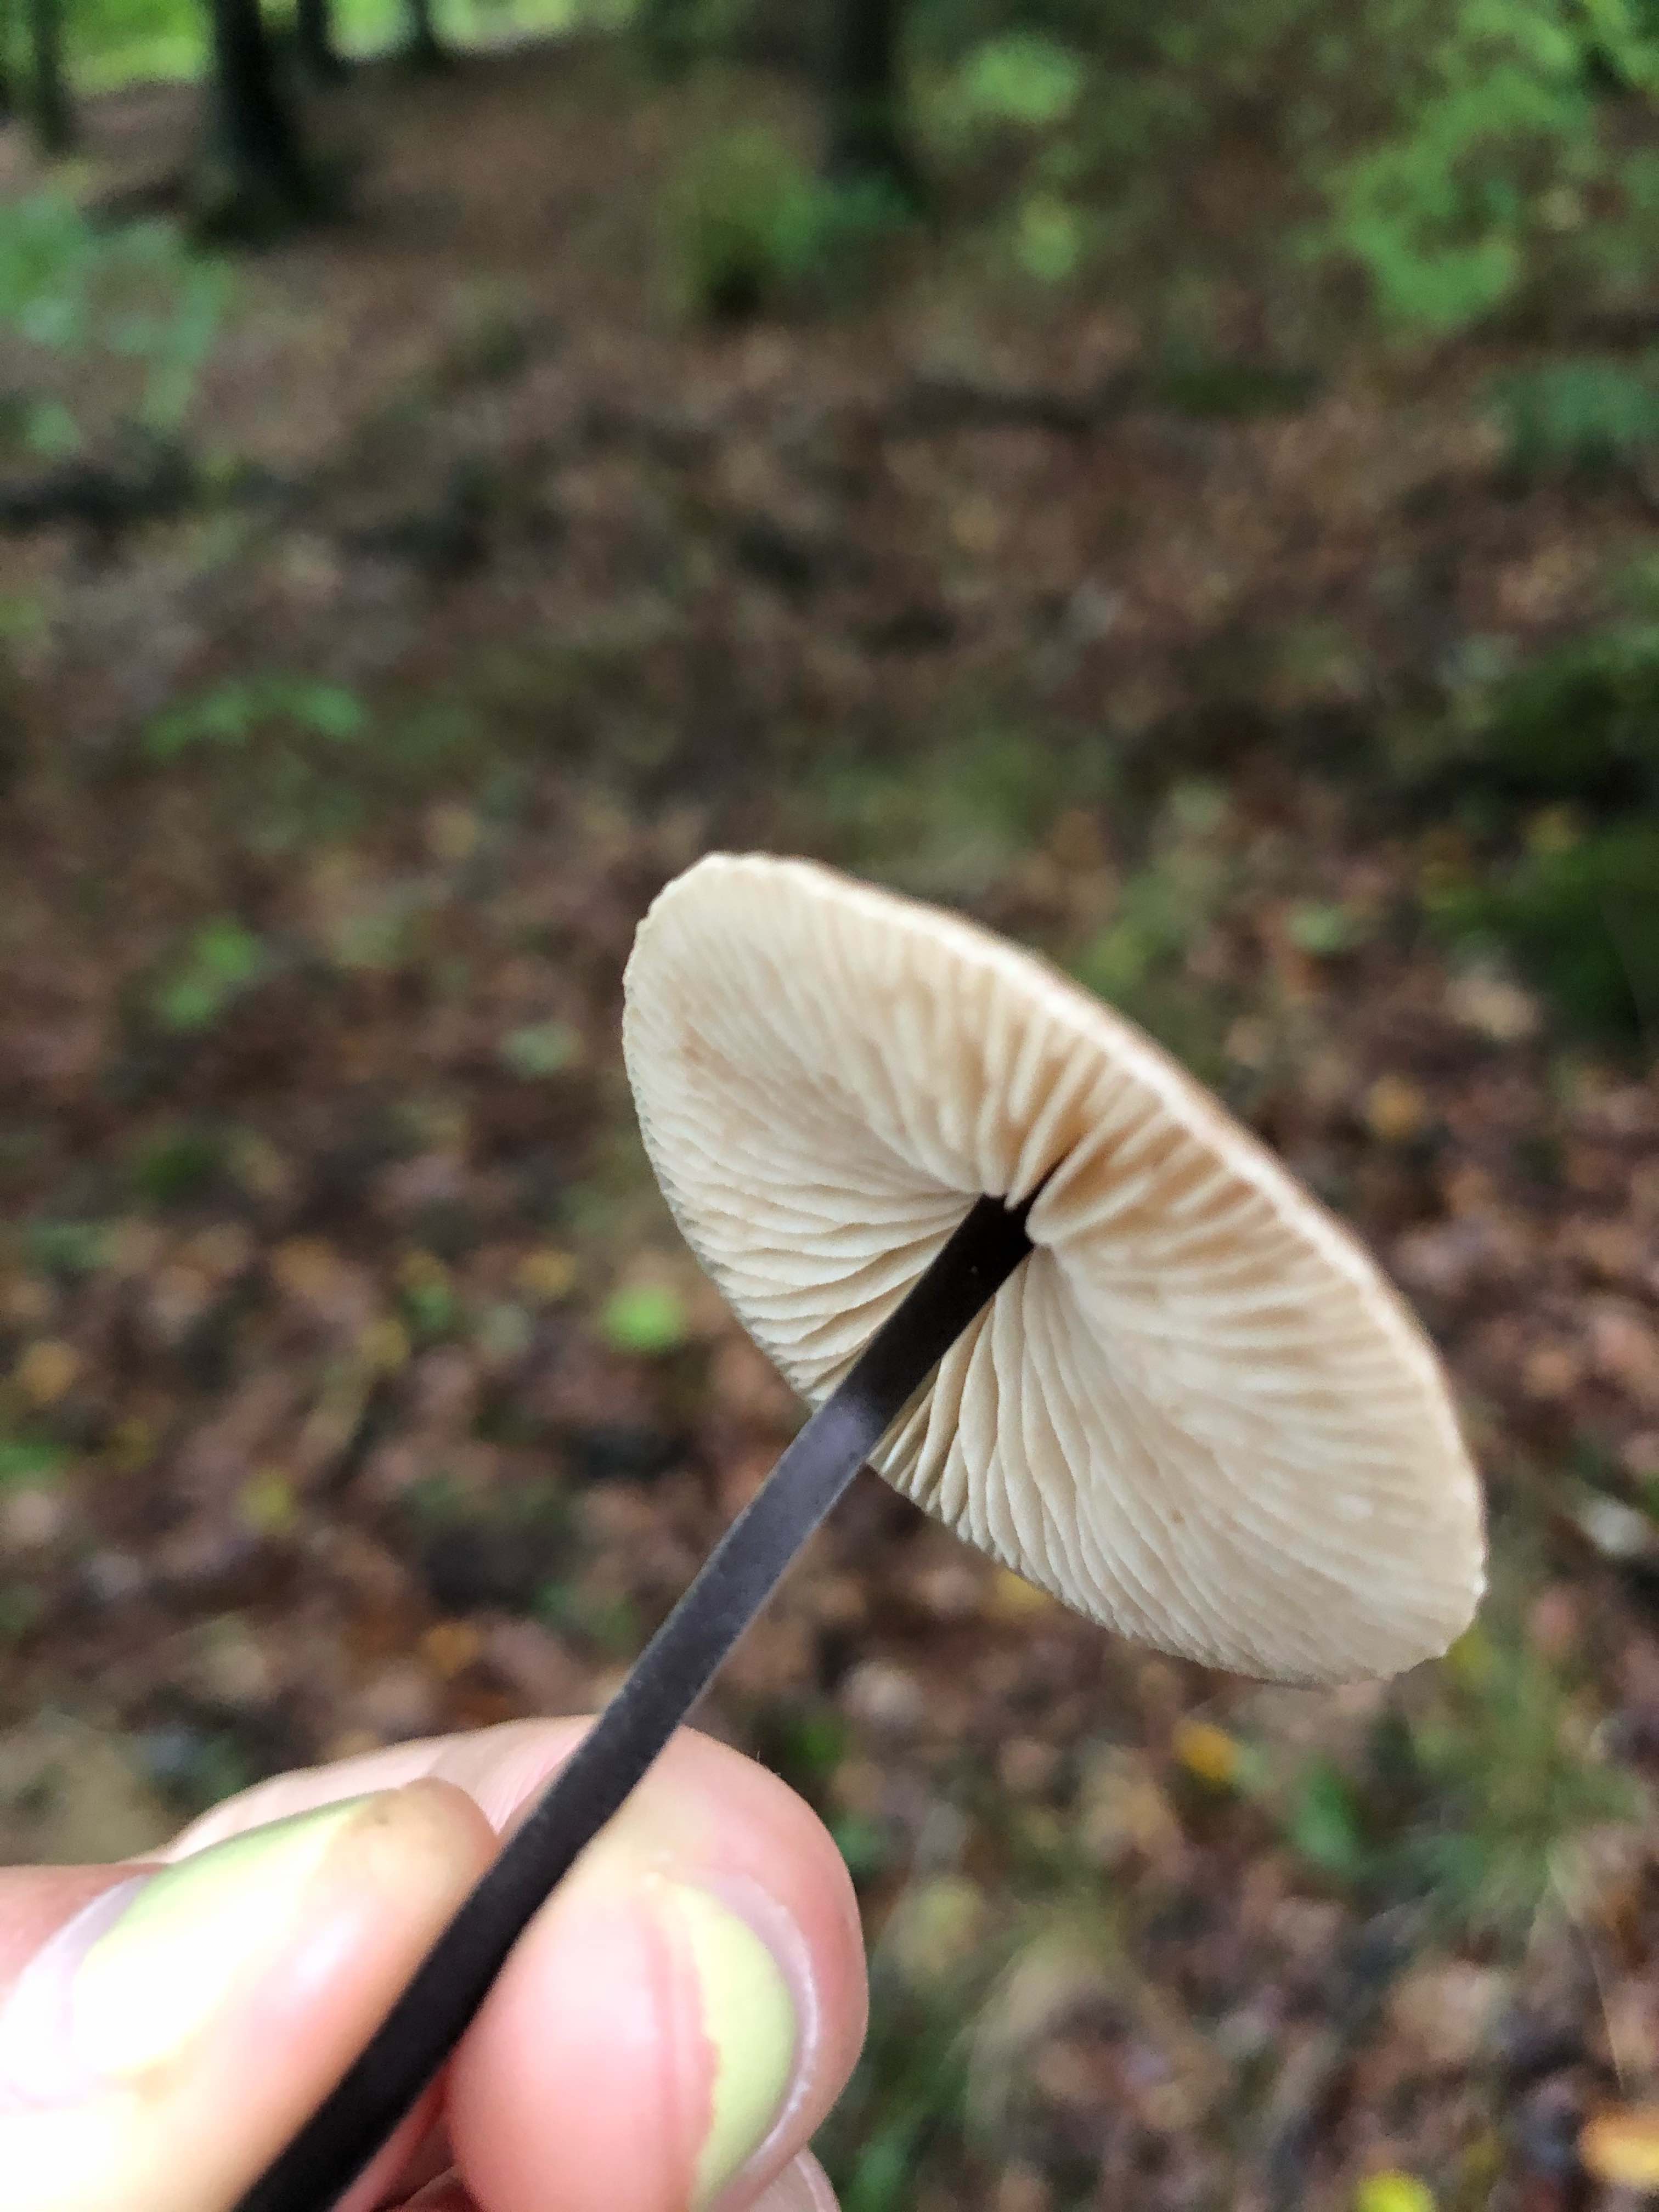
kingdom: Fungi
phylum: Basidiomycota
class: Agaricomycetes
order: Agaricales
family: Omphalotaceae
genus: Mycetinis
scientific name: Mycetinis alliaceus
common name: stor løghat
